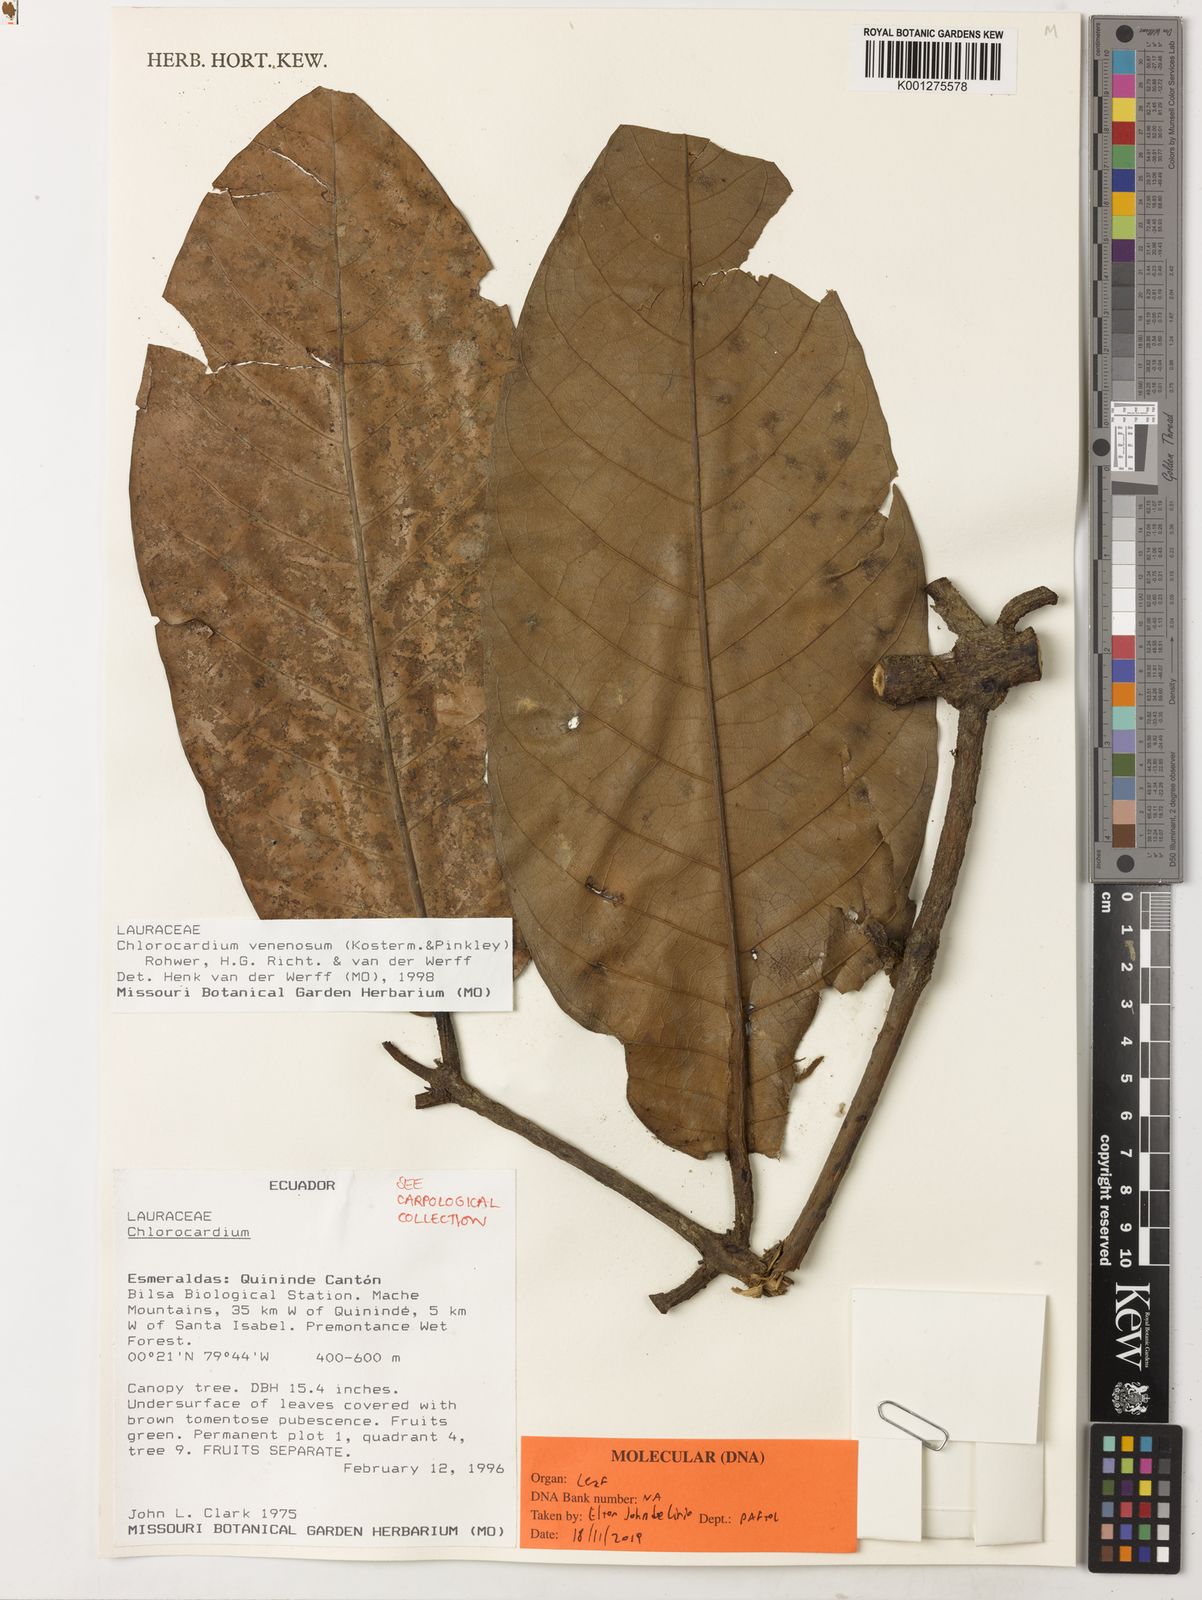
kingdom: Plantae
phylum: Tracheophyta
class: Magnoliopsida
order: Laurales
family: Lauraceae
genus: Chlorocardium
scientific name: Chlorocardium
